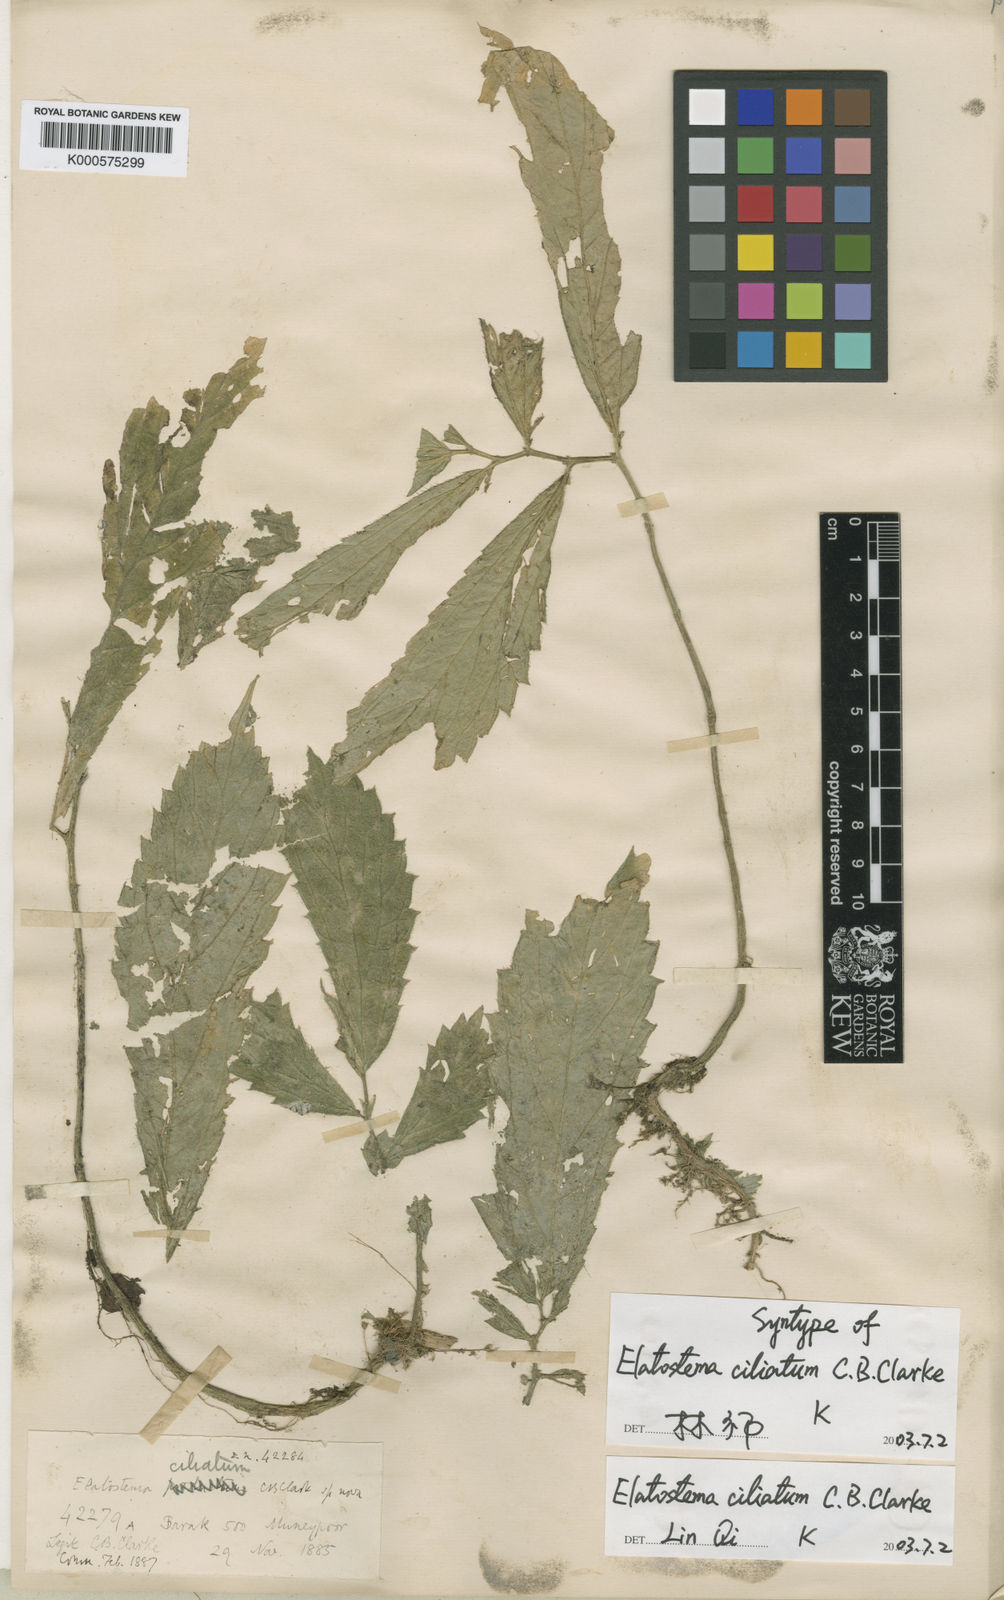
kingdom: Plantae
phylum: Tracheophyta
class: Magnoliopsida
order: Rosales
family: Urticaceae
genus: Elatostema
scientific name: Elatostema ciliatum
